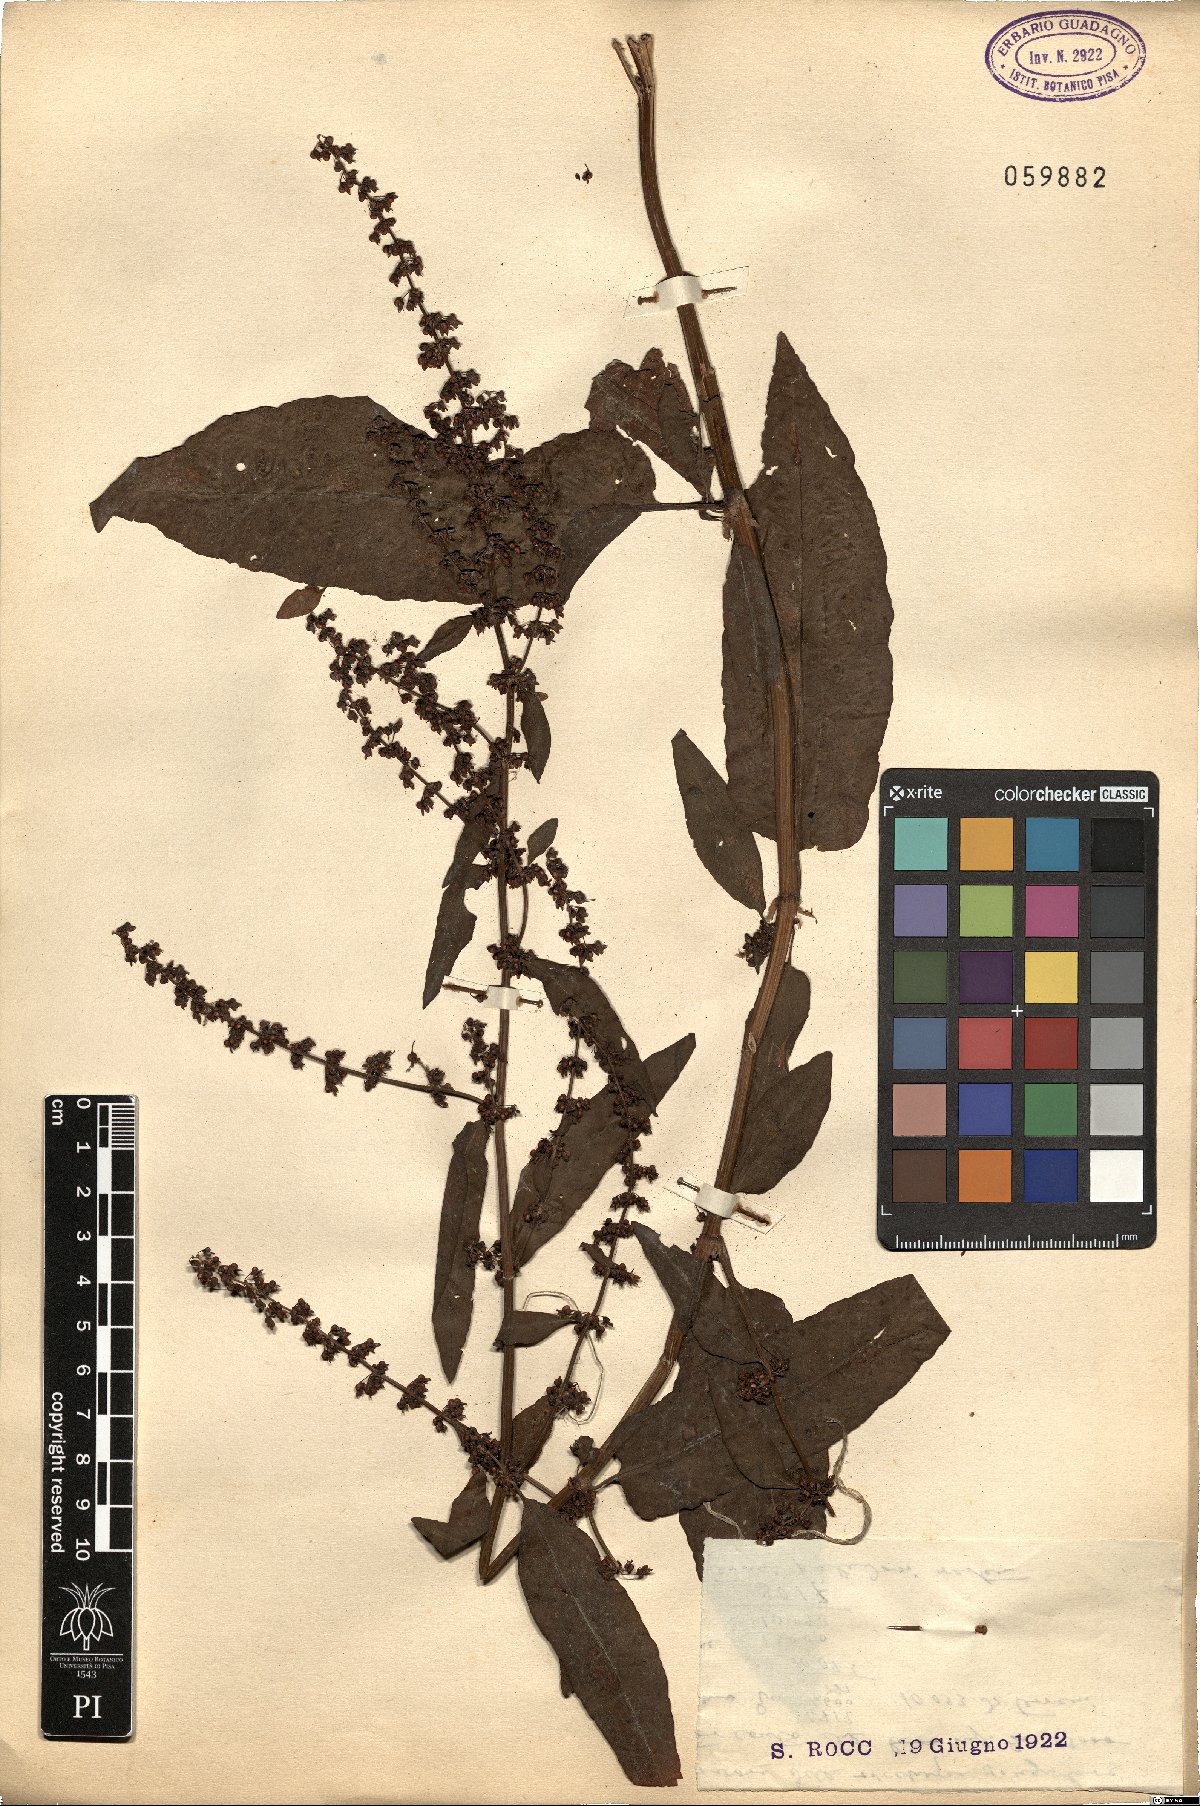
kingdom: Plantae
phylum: Tracheophyta
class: Magnoliopsida
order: Caryophyllales
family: Polygonaceae
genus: Rumex
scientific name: Rumex
